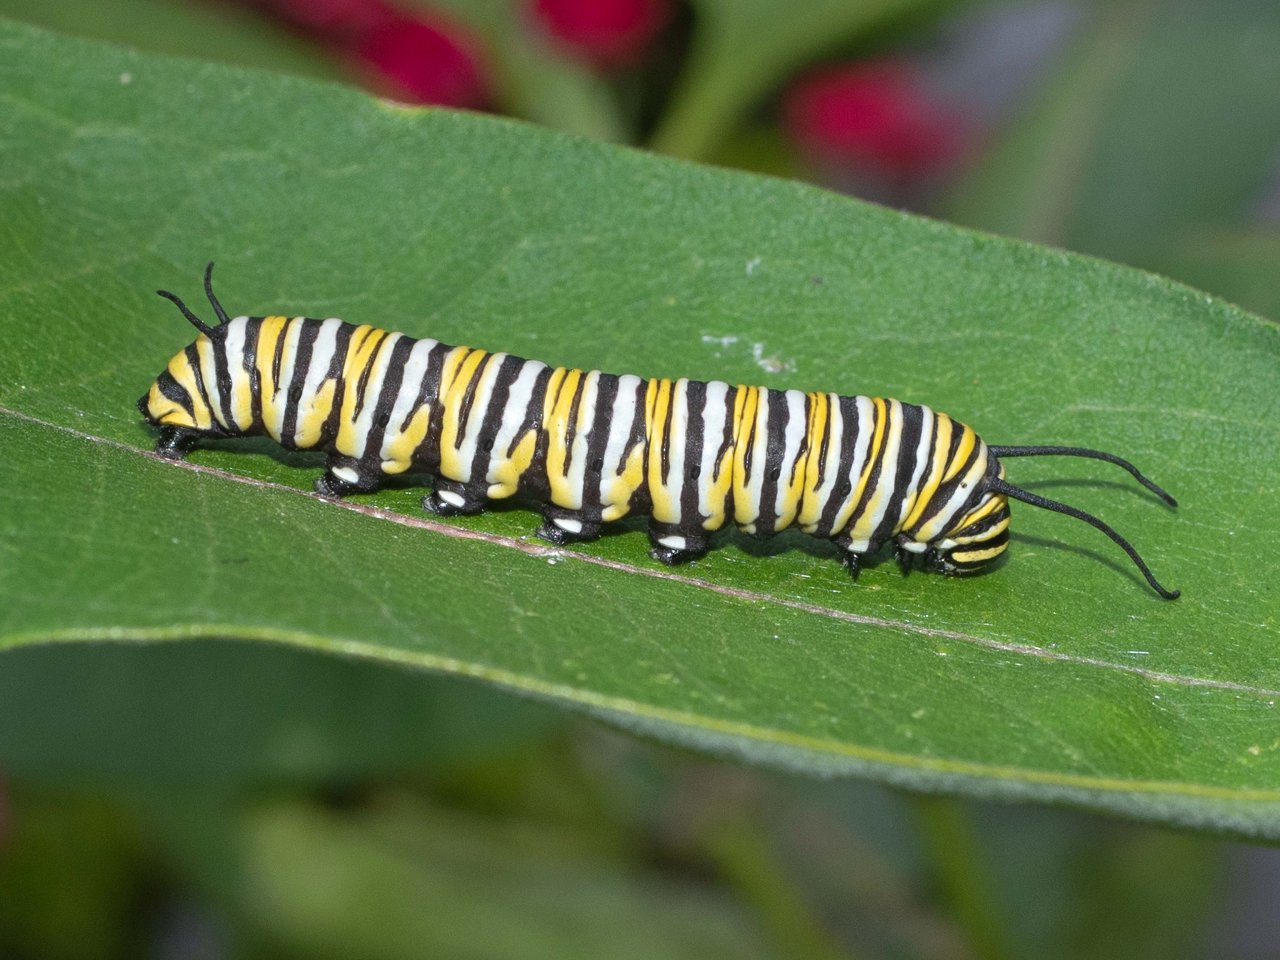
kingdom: Animalia
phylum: Arthropoda
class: Insecta
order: Lepidoptera
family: Nymphalidae
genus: Danaus
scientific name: Danaus plexippus
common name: Monarch
